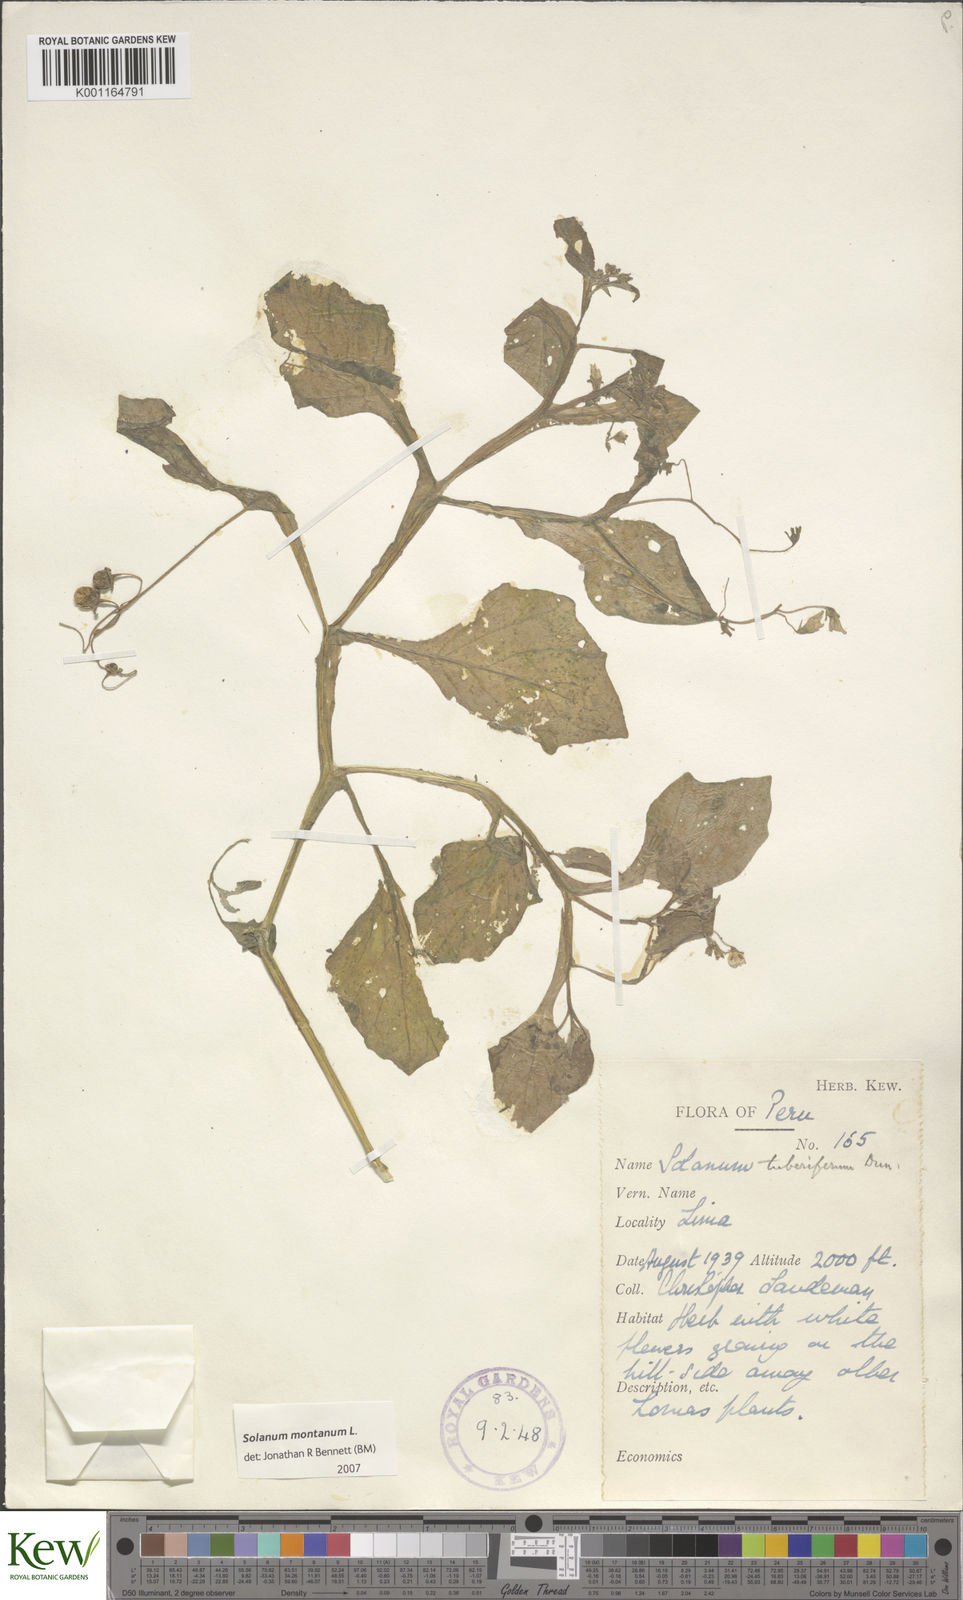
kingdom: Plantae
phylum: Tracheophyta
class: Magnoliopsida
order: Solanales
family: Solanaceae
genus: Solanum
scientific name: Solanum montanum
